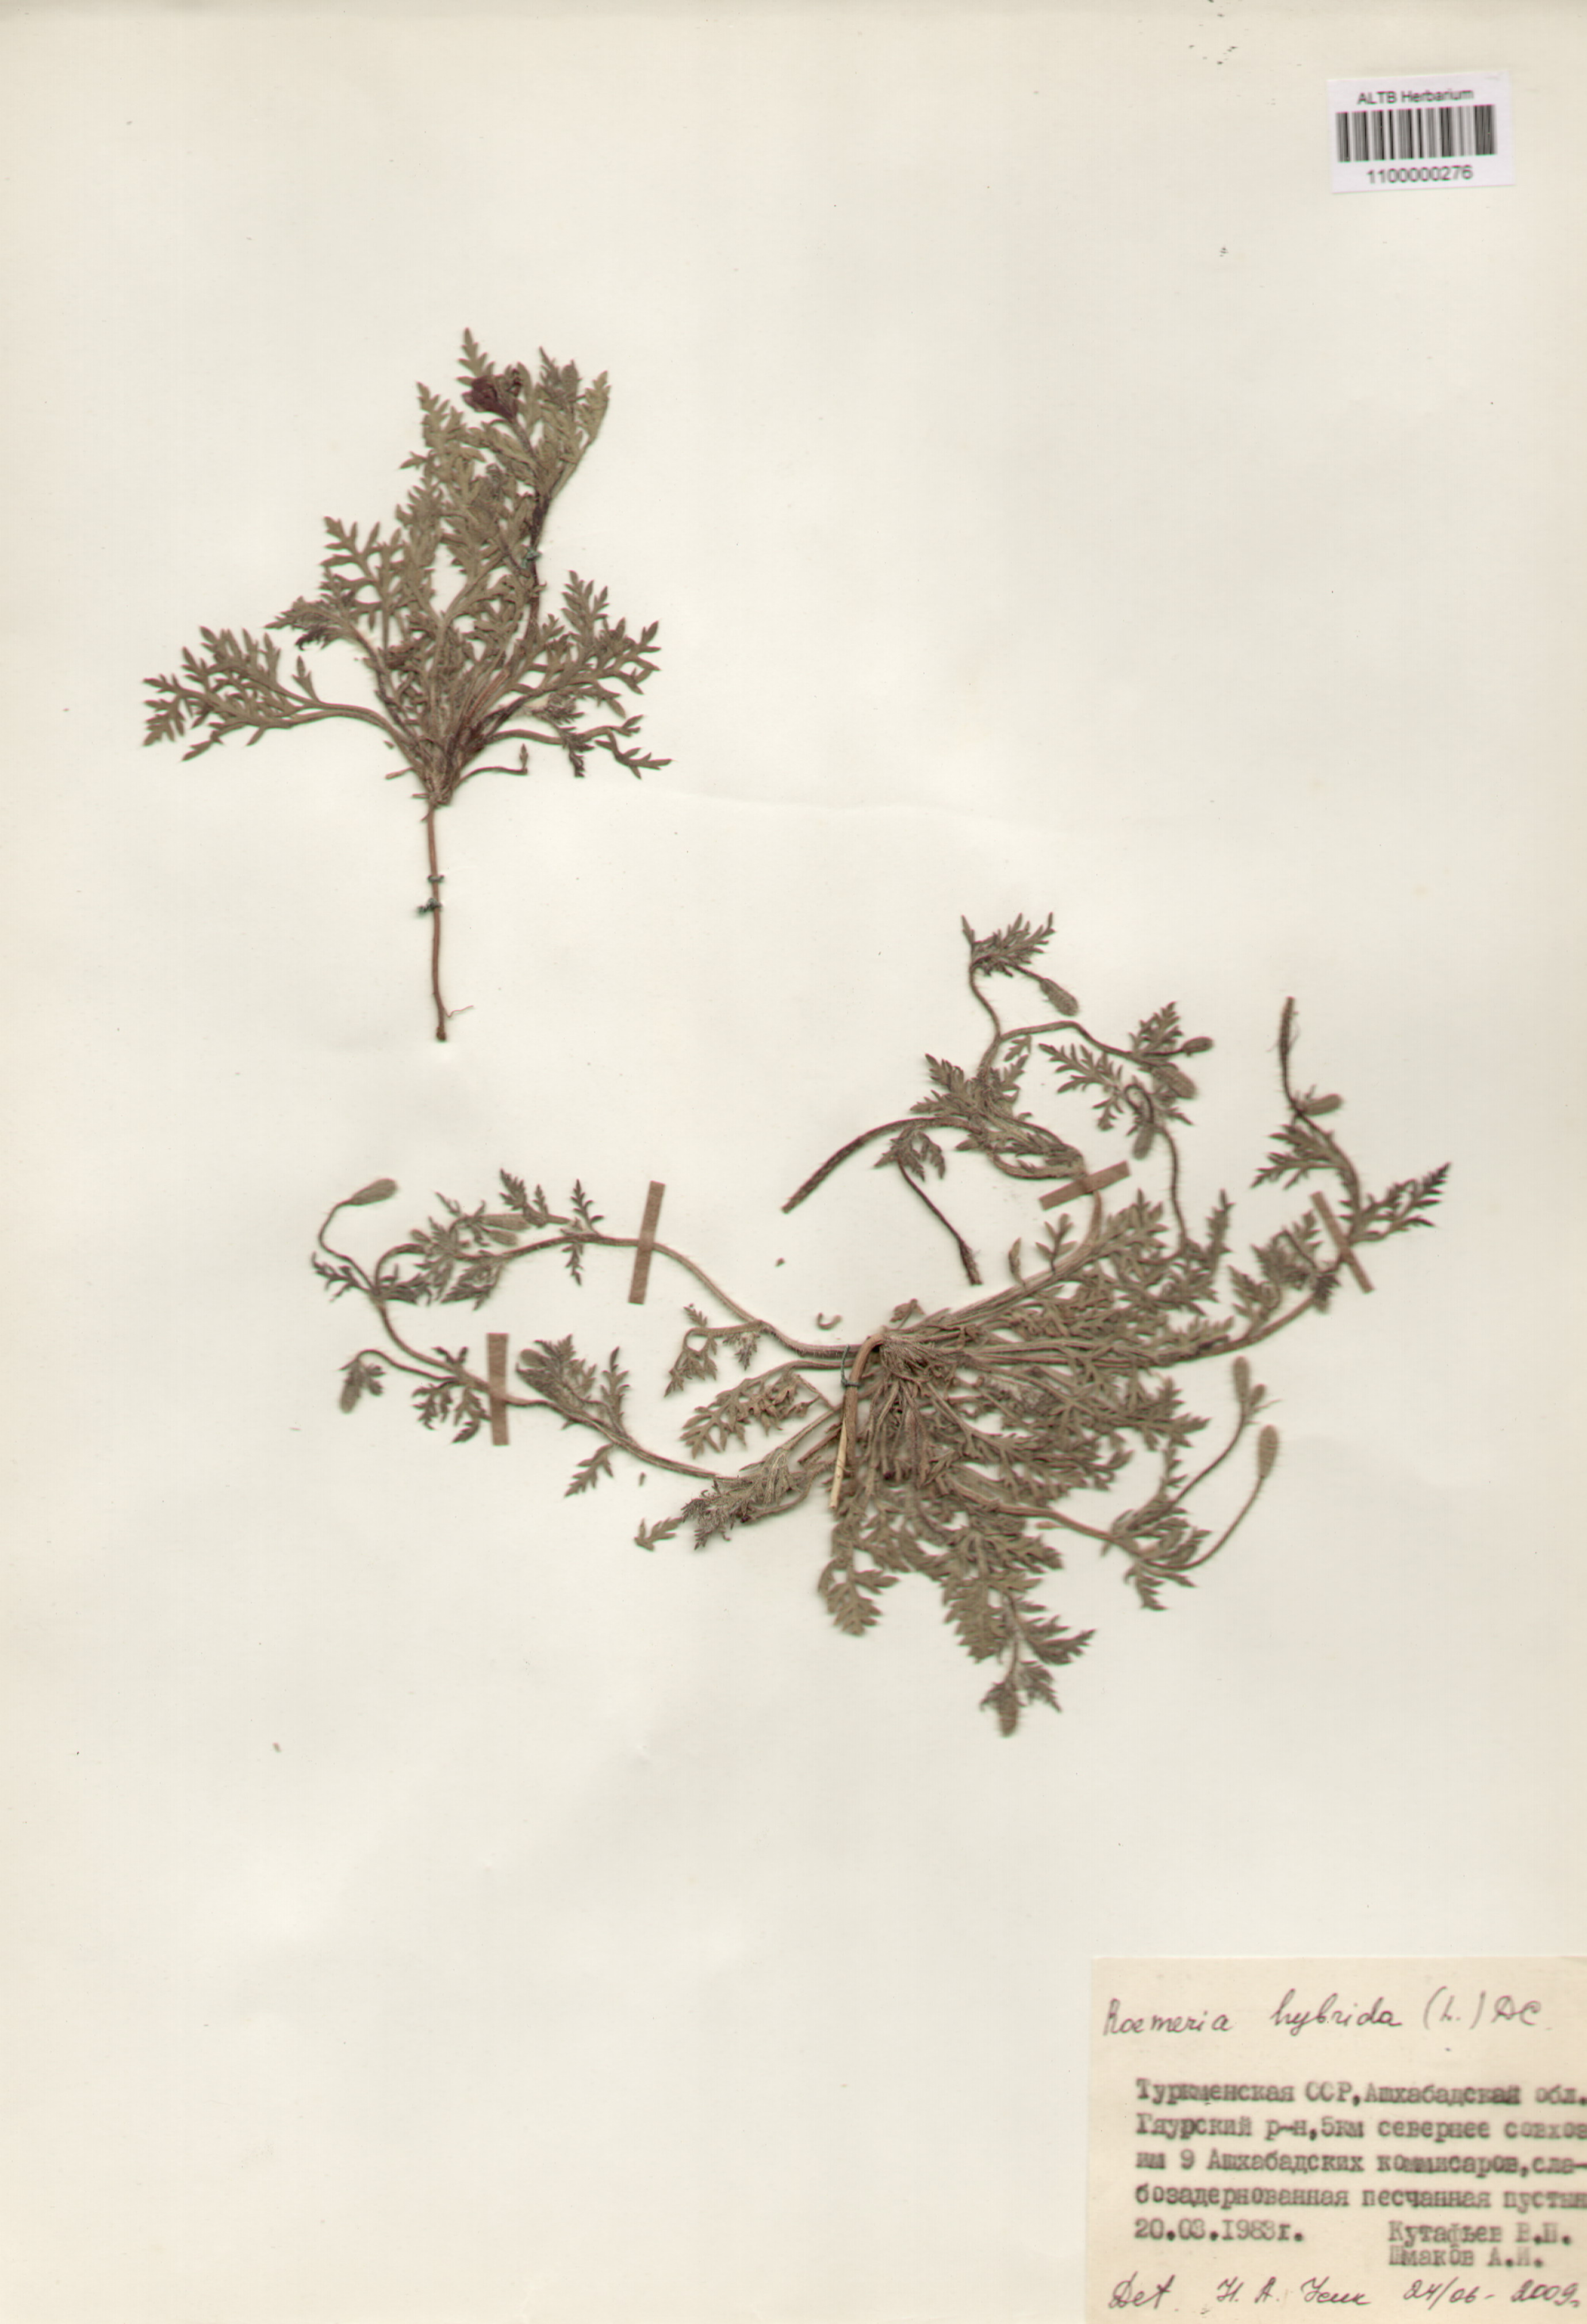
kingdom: Plantae
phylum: Tracheophyta
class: Magnoliopsida
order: Ranunculales
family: Papaveraceae
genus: Roemeria
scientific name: Roemeria hybrida
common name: Violet horned-poppy
